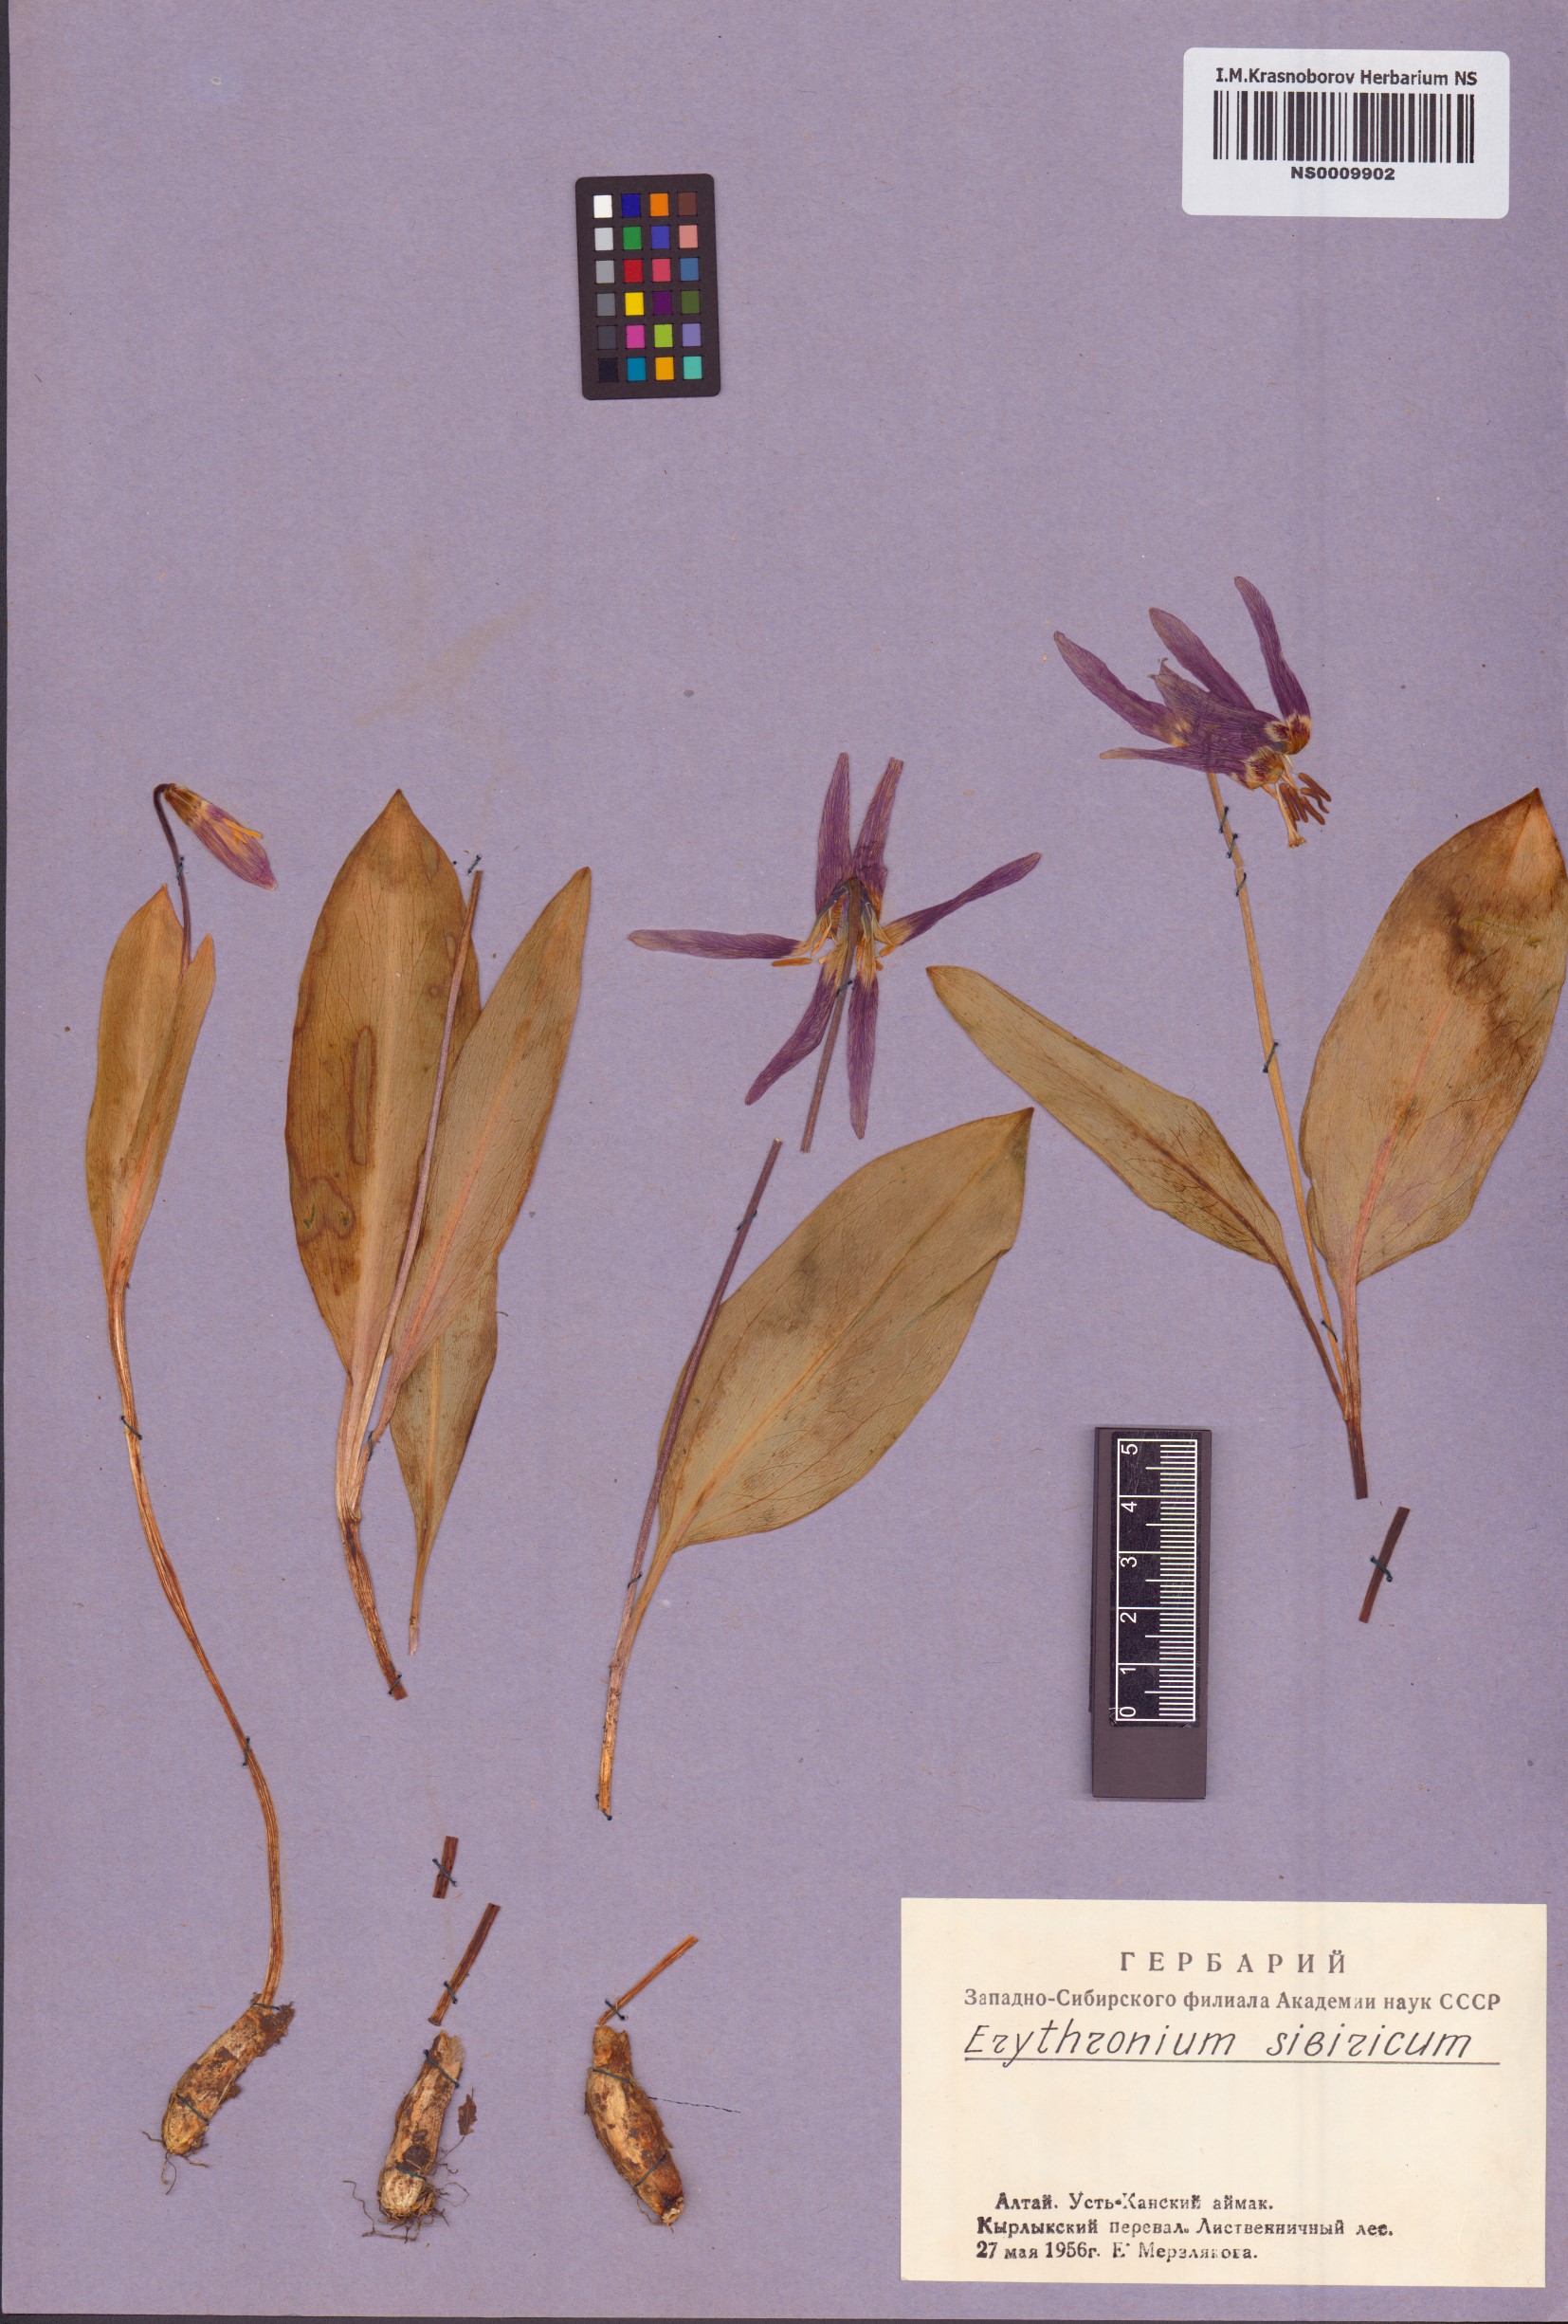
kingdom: Plantae
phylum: Tracheophyta
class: Liliopsida
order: Liliales
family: Liliaceae
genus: Erythronium
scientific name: Erythronium sibiricum
